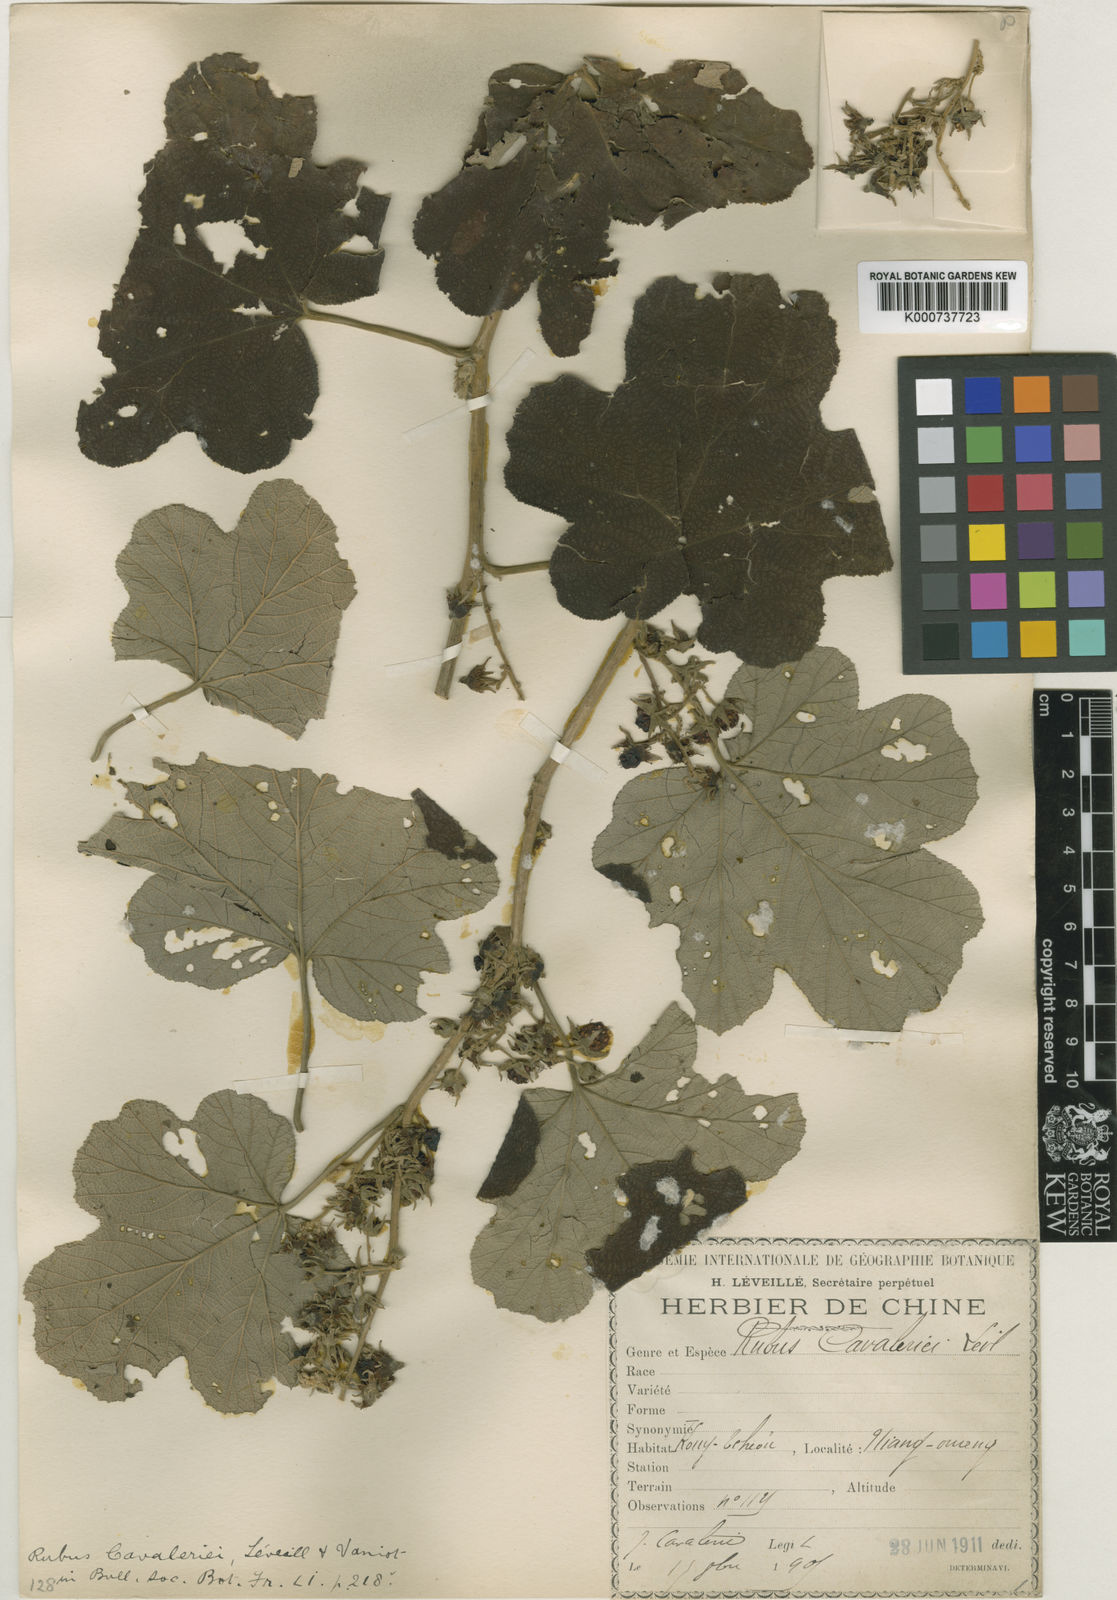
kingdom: Plantae
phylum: Tracheophyta
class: Magnoliopsida
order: Rosales
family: Rosaceae
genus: Rubus
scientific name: Rubus
